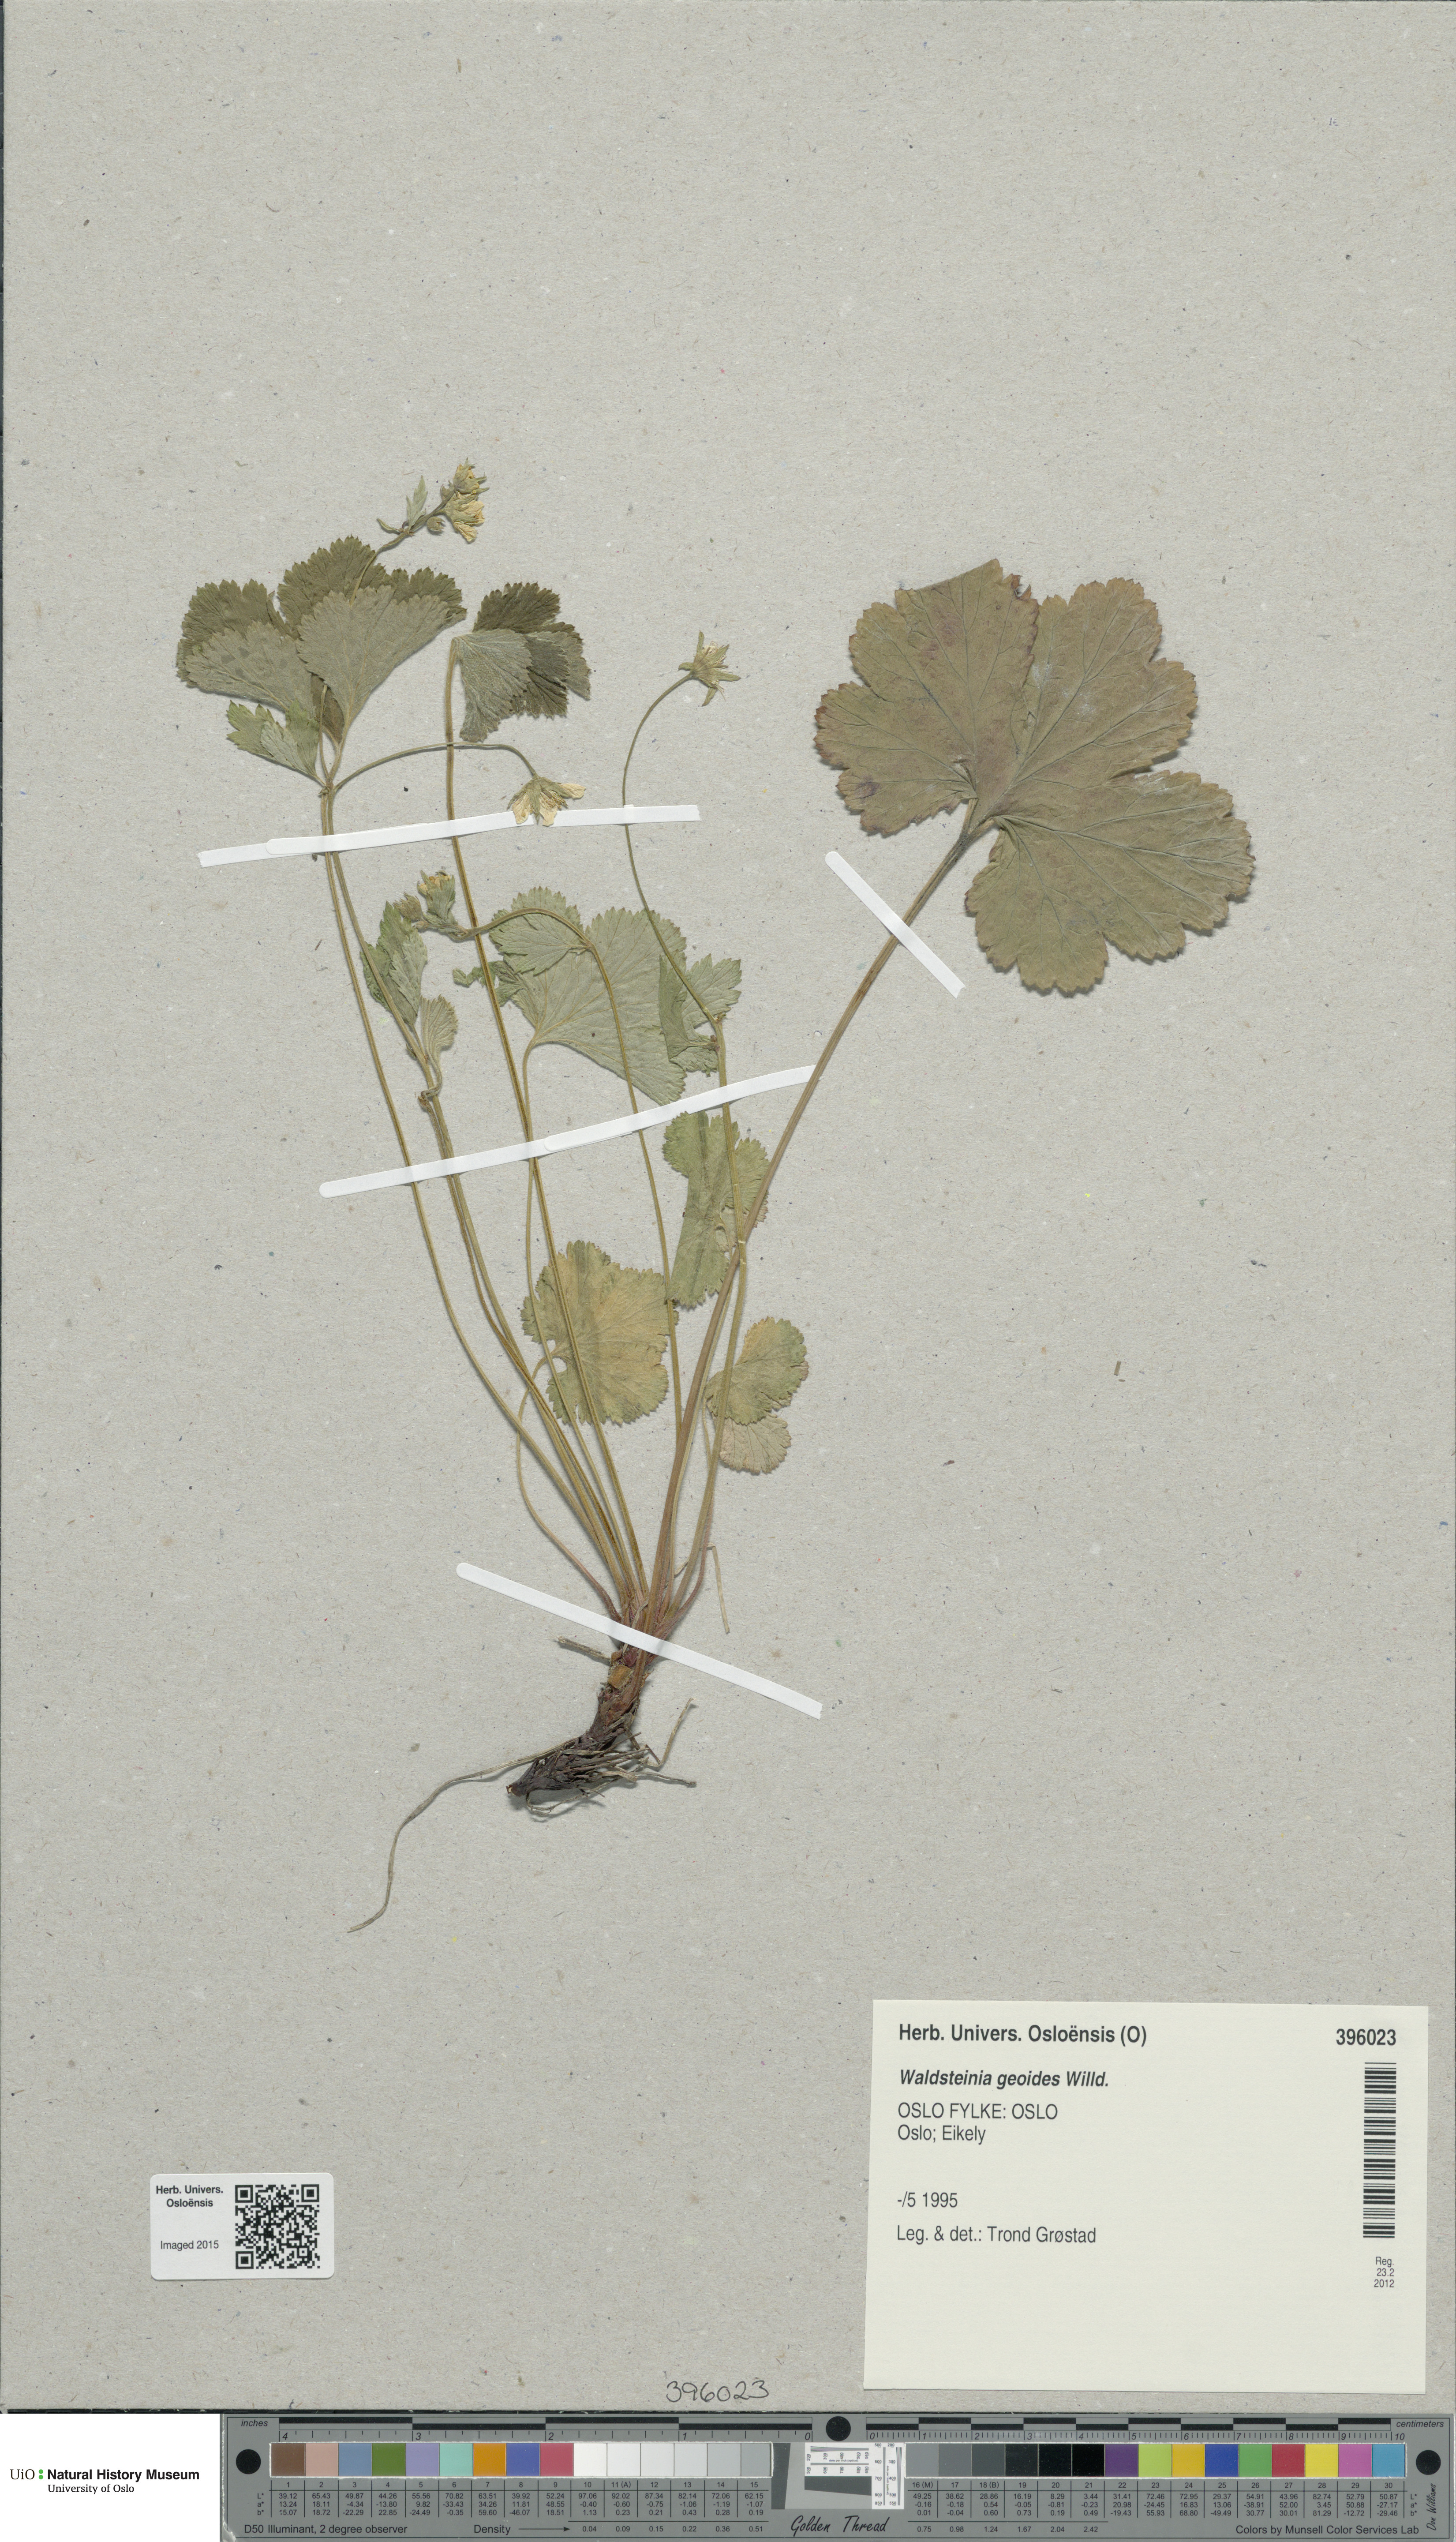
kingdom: Plantae
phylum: Tracheophyta
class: Magnoliopsida
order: Rosales
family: Rosaceae
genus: Geum
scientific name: Geum waldsteinia
